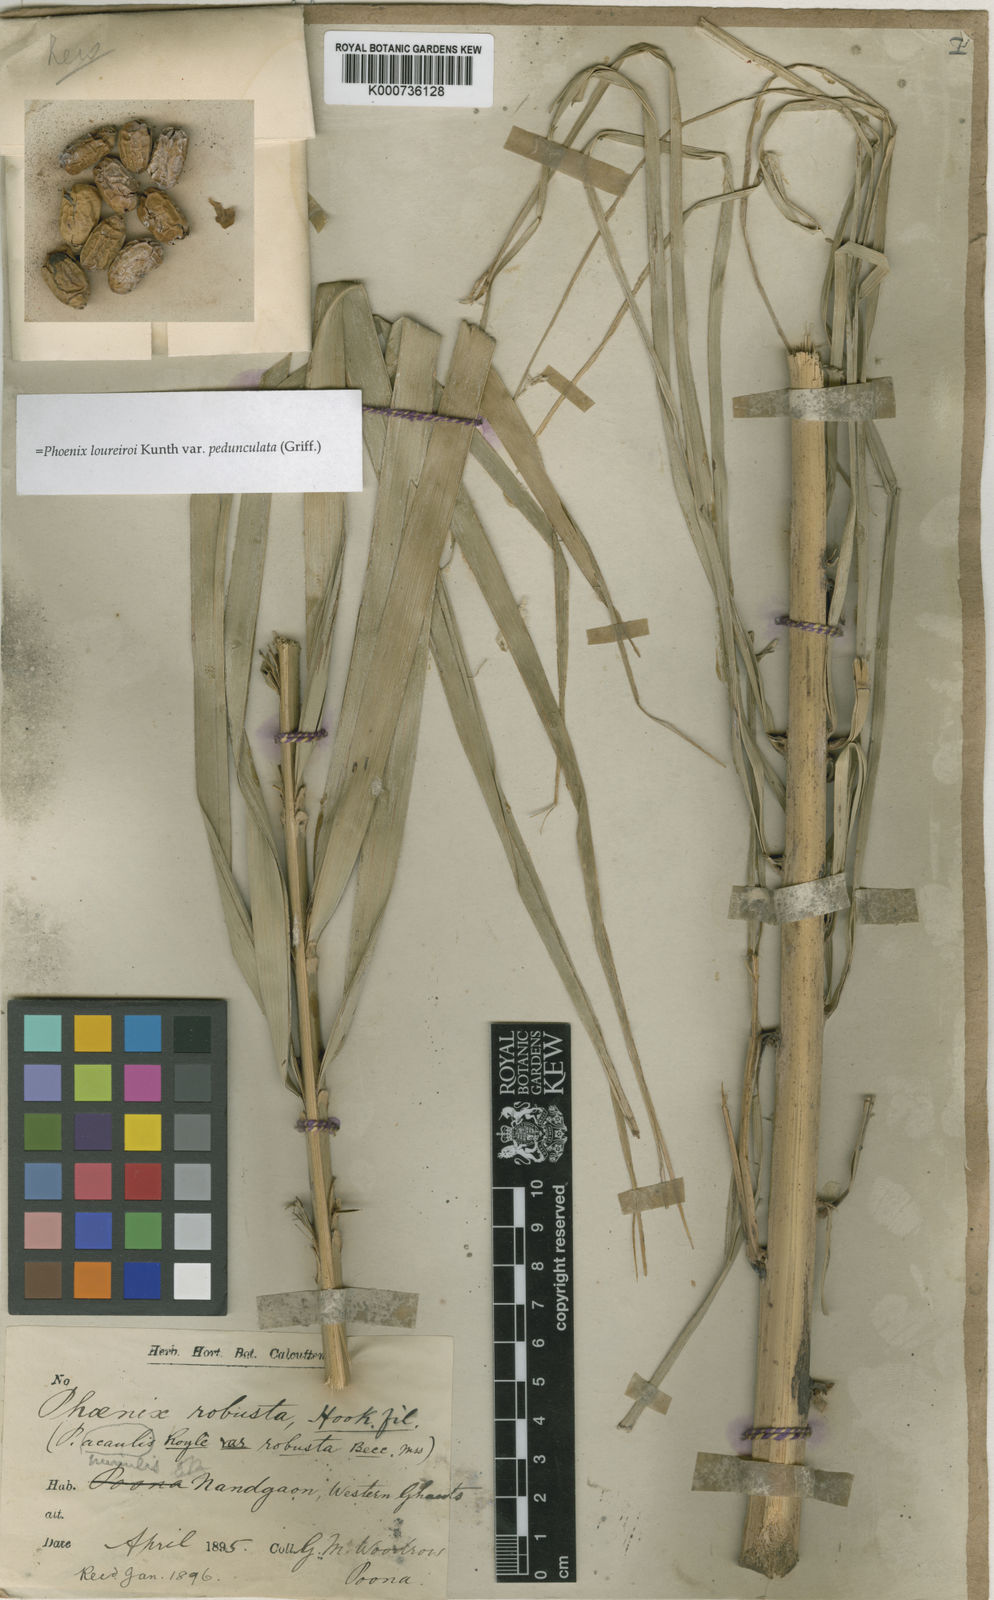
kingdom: Plantae
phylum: Tracheophyta
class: Liliopsida
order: Arecales
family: Arecaceae
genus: Phoenix
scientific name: Phoenix loureiroi
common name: Loureiro's palm
